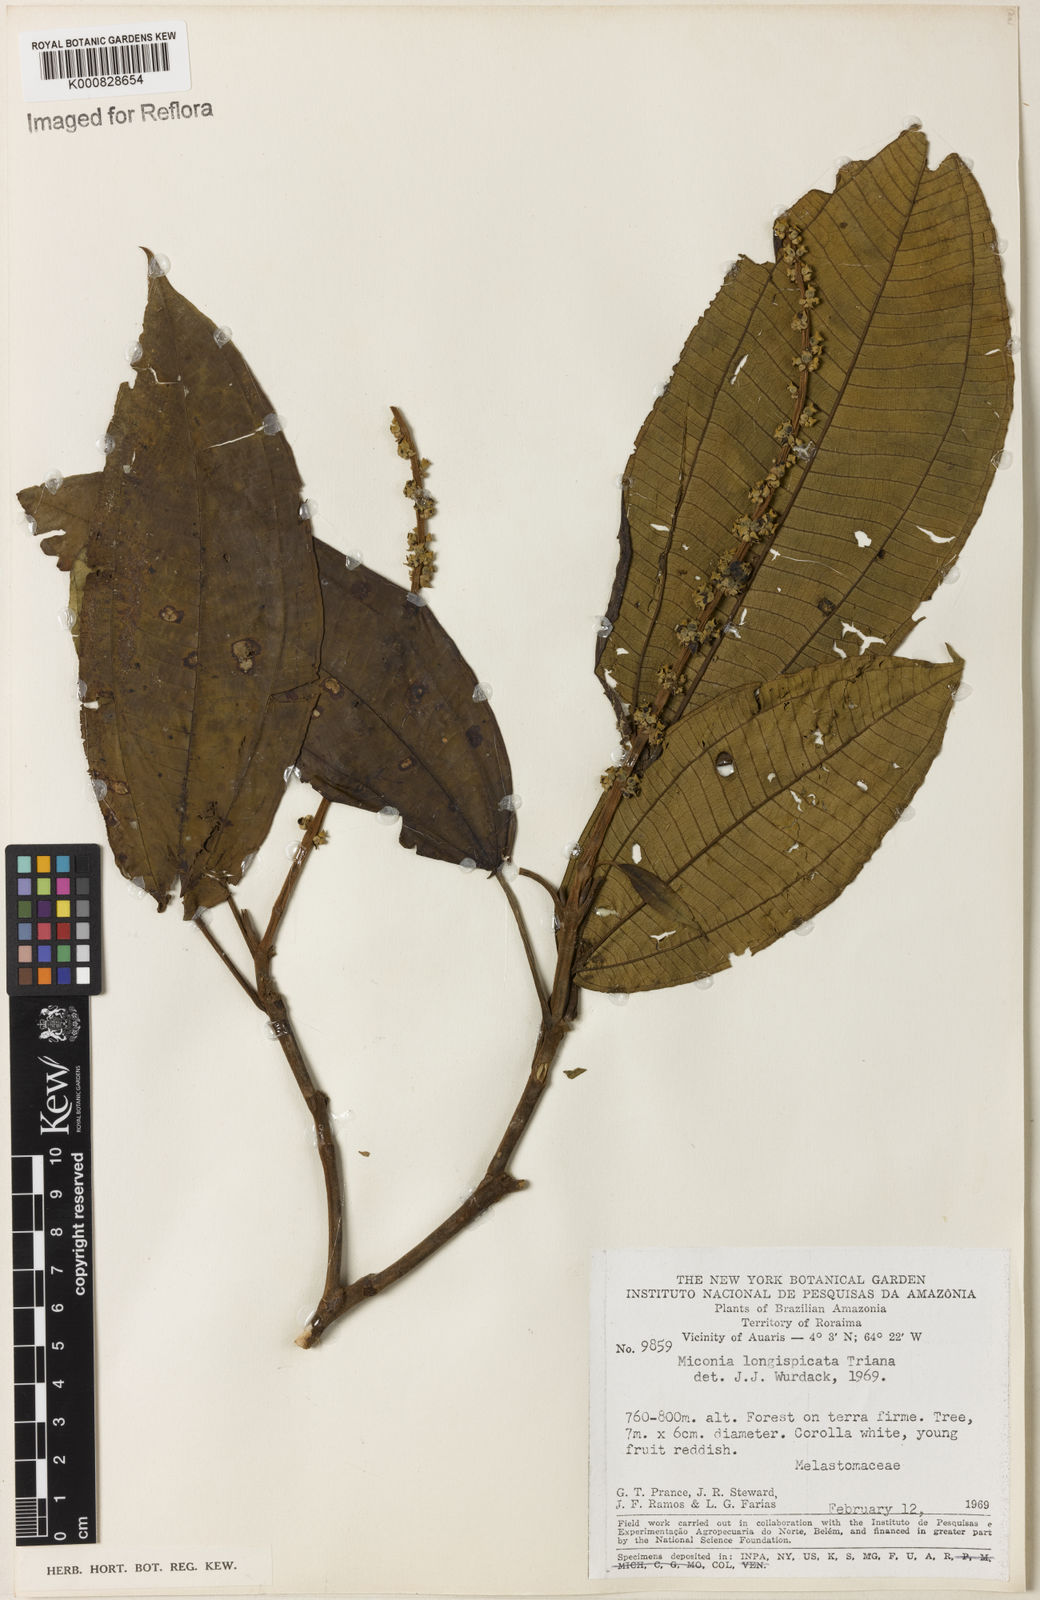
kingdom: Plantae
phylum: Tracheophyta
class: Magnoliopsida
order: Myrtales
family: Melastomataceae
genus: Miconia
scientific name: Miconia longispicata
